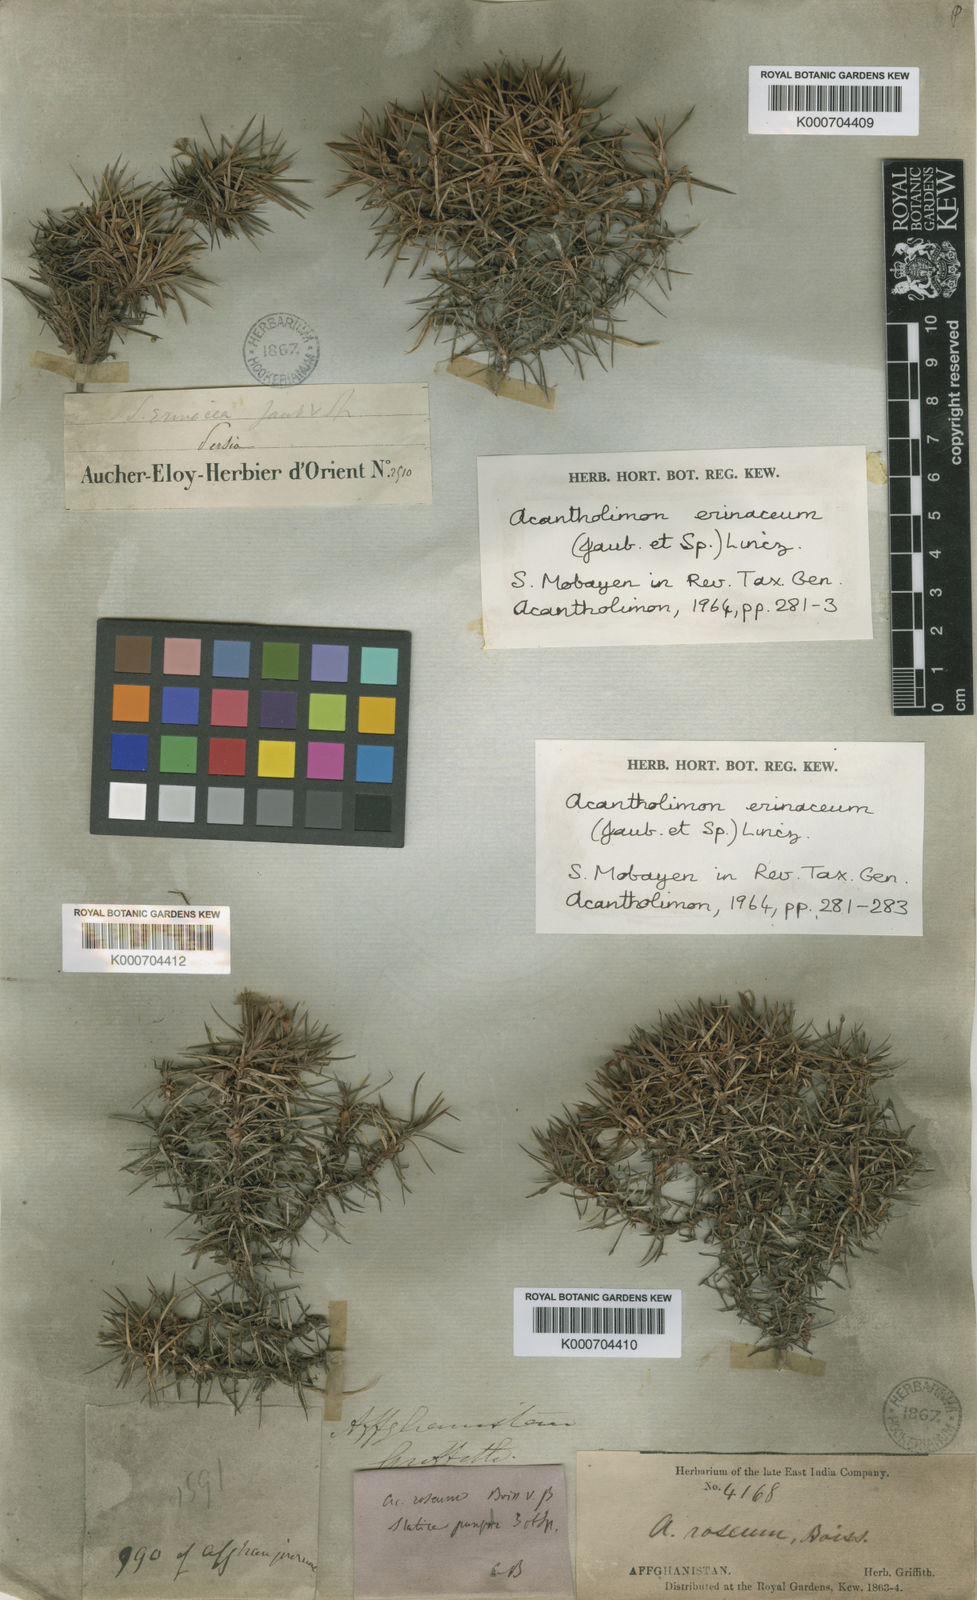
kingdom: Plantae
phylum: Tracheophyta
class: Magnoliopsida
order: Caryophyllales
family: Plumbaginaceae
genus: Acantholimon
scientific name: Acantholimon erinaceum
